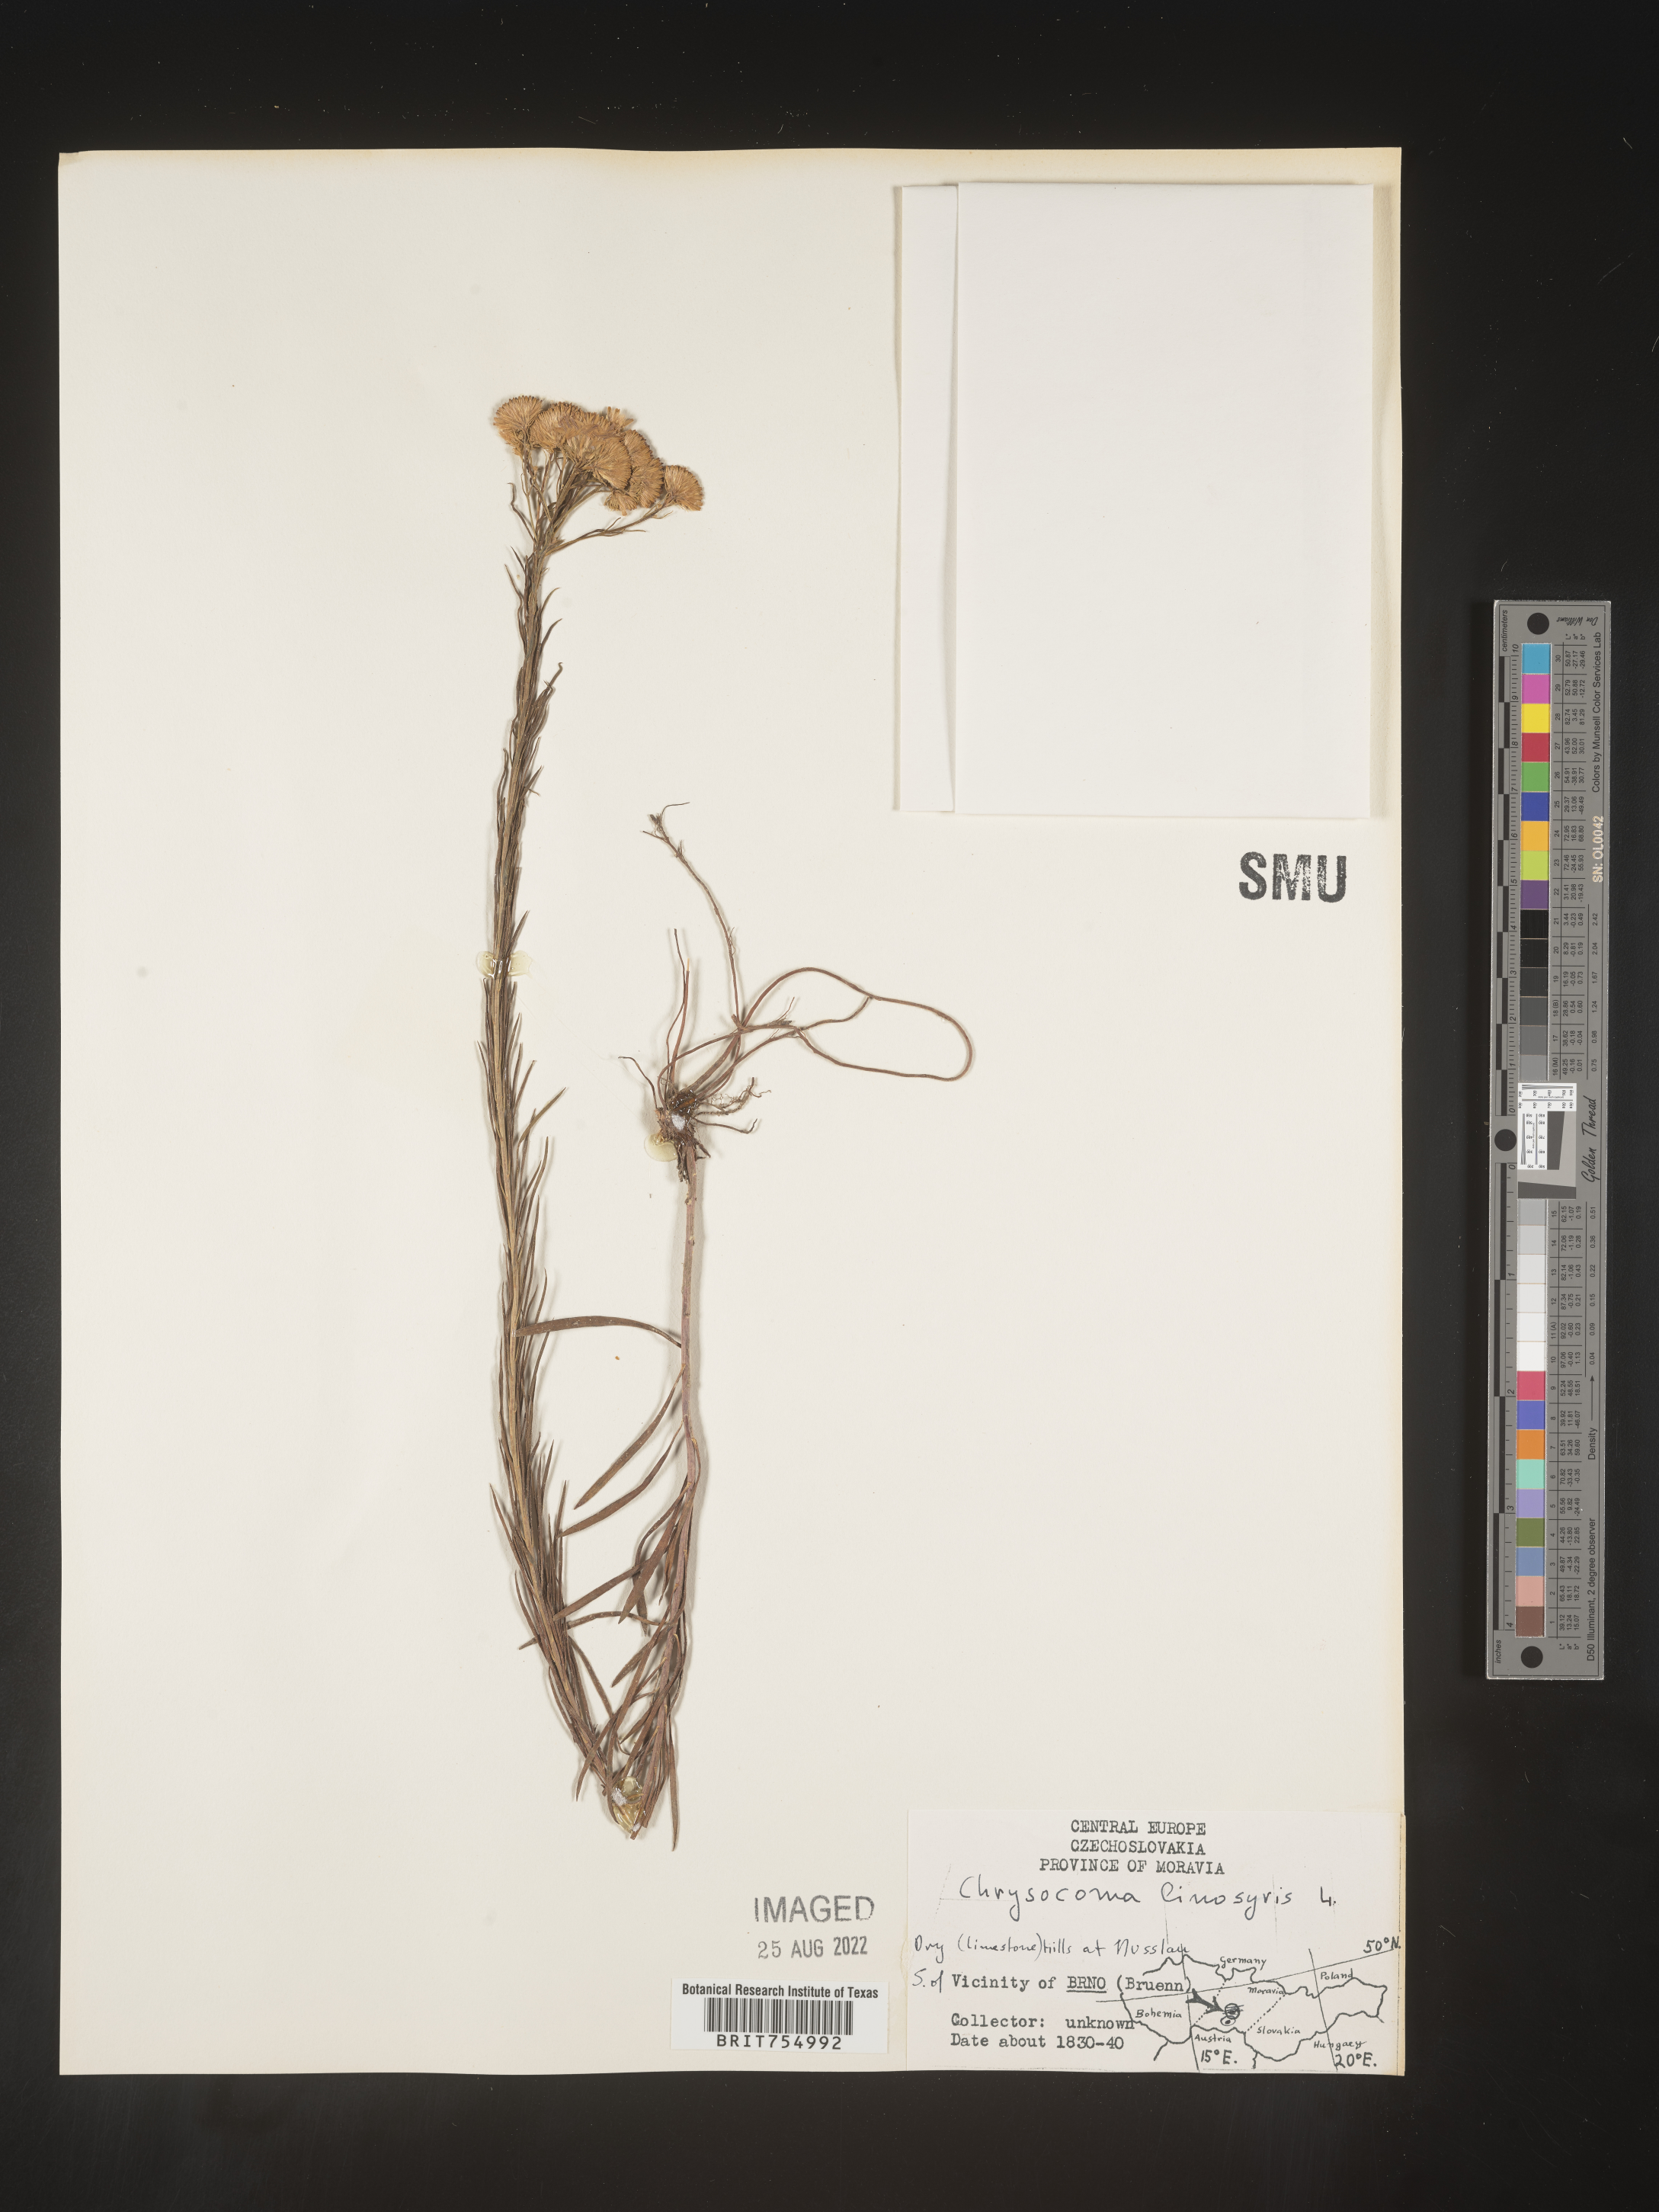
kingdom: Plantae
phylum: Tracheophyta
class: Magnoliopsida
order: Asterales
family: Asteraceae
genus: Symphyotrichum
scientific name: Symphyotrichum
